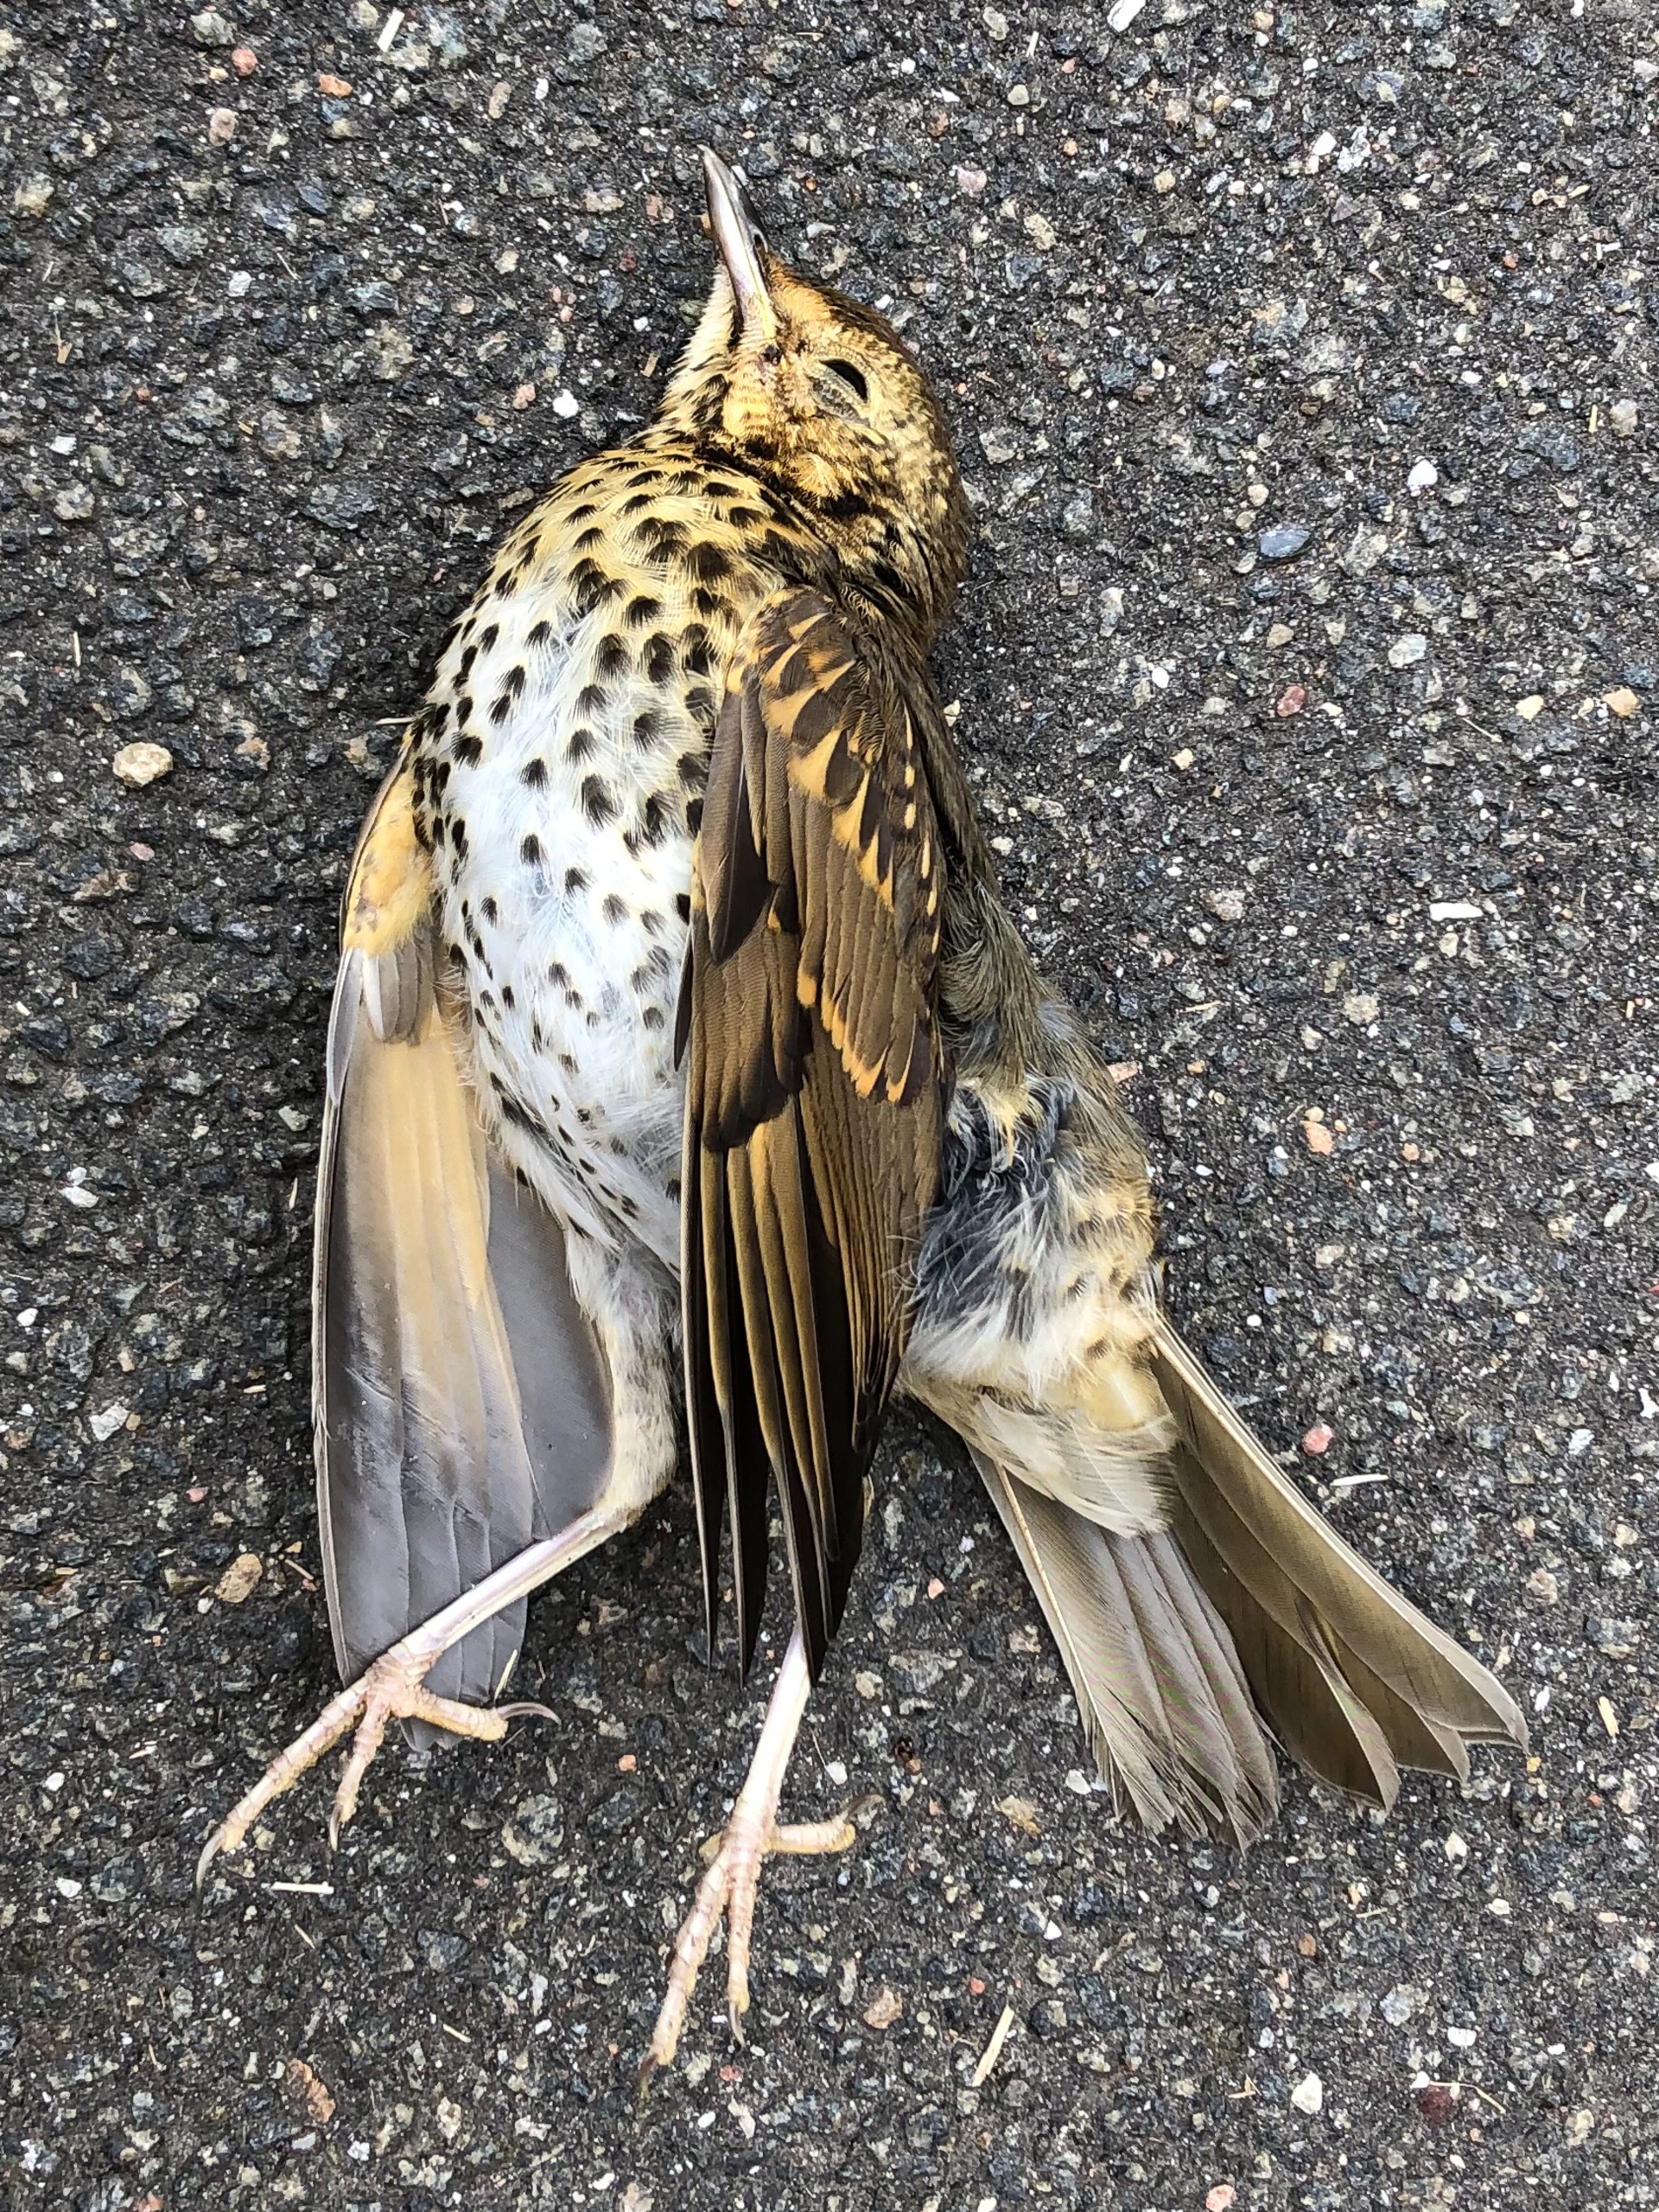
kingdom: Animalia
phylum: Chordata
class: Aves
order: Passeriformes
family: Turdidae
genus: Turdus
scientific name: Turdus philomelos
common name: Sangdrossel
